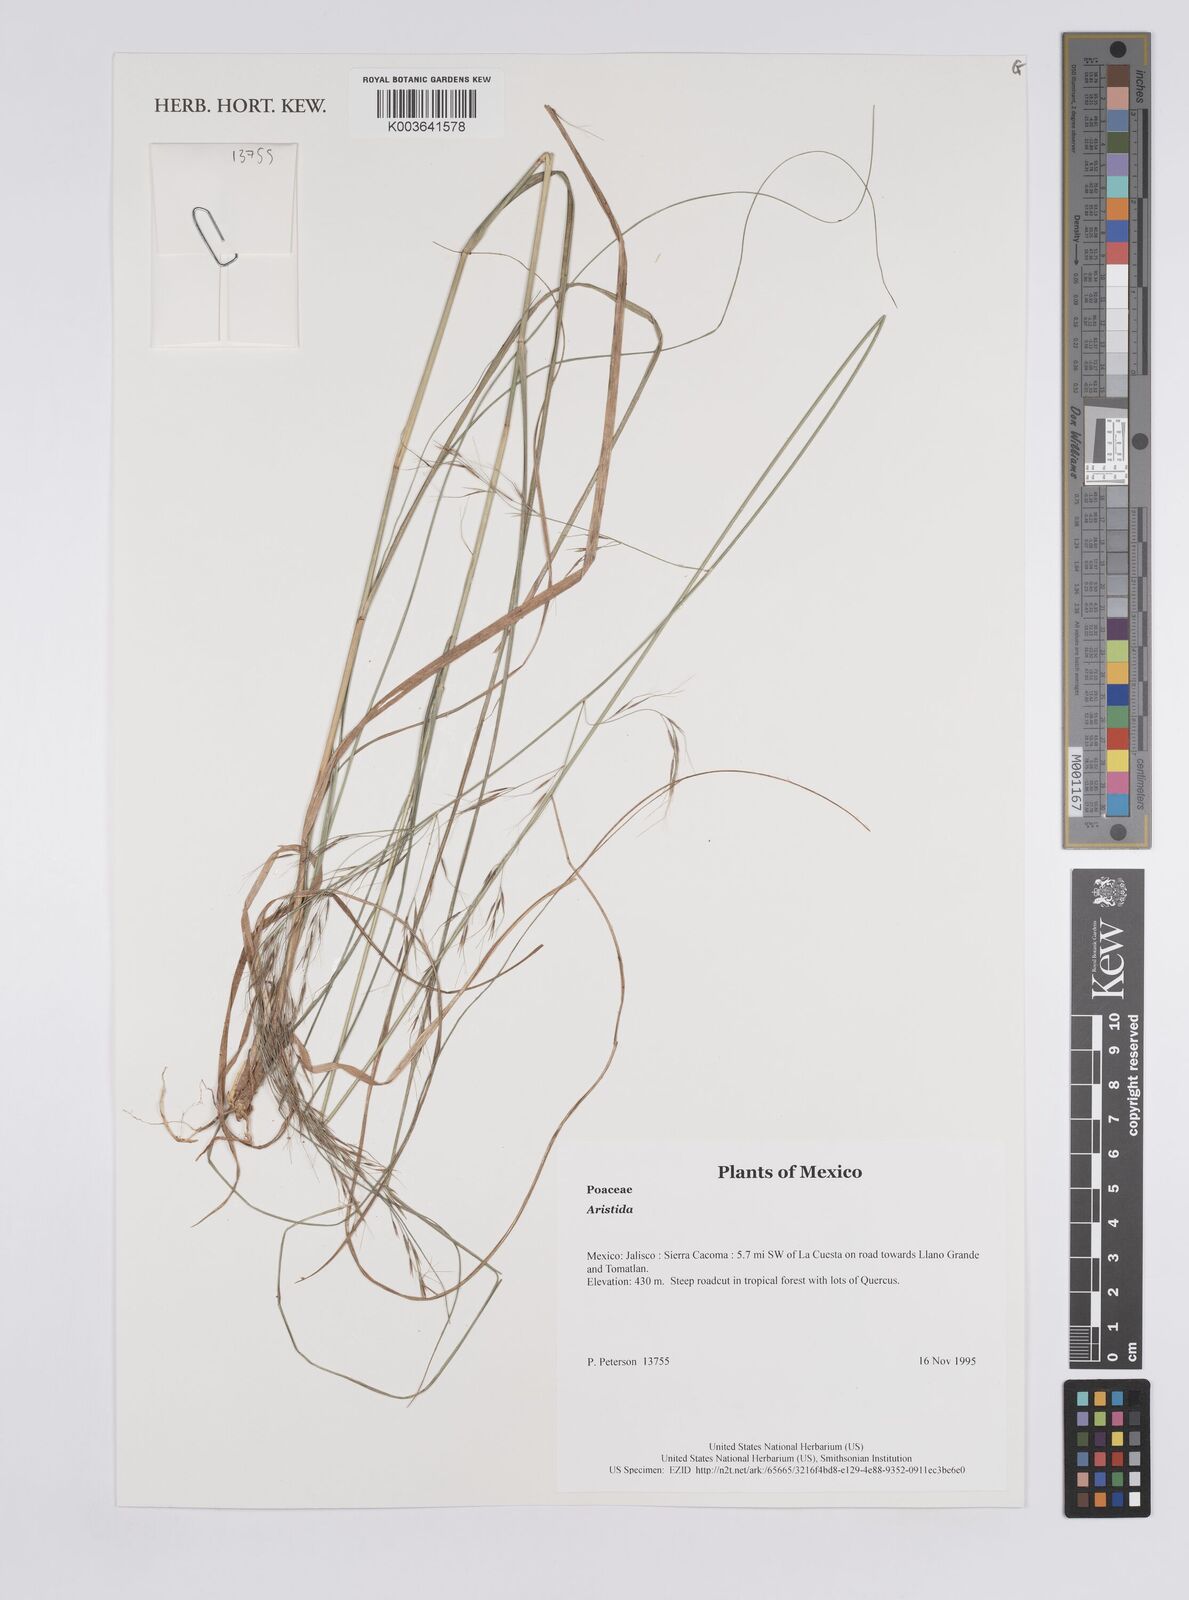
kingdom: Plantae
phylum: Tracheophyta
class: Liliopsida
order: Poales
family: Poaceae
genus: Aristida
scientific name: Aristida
